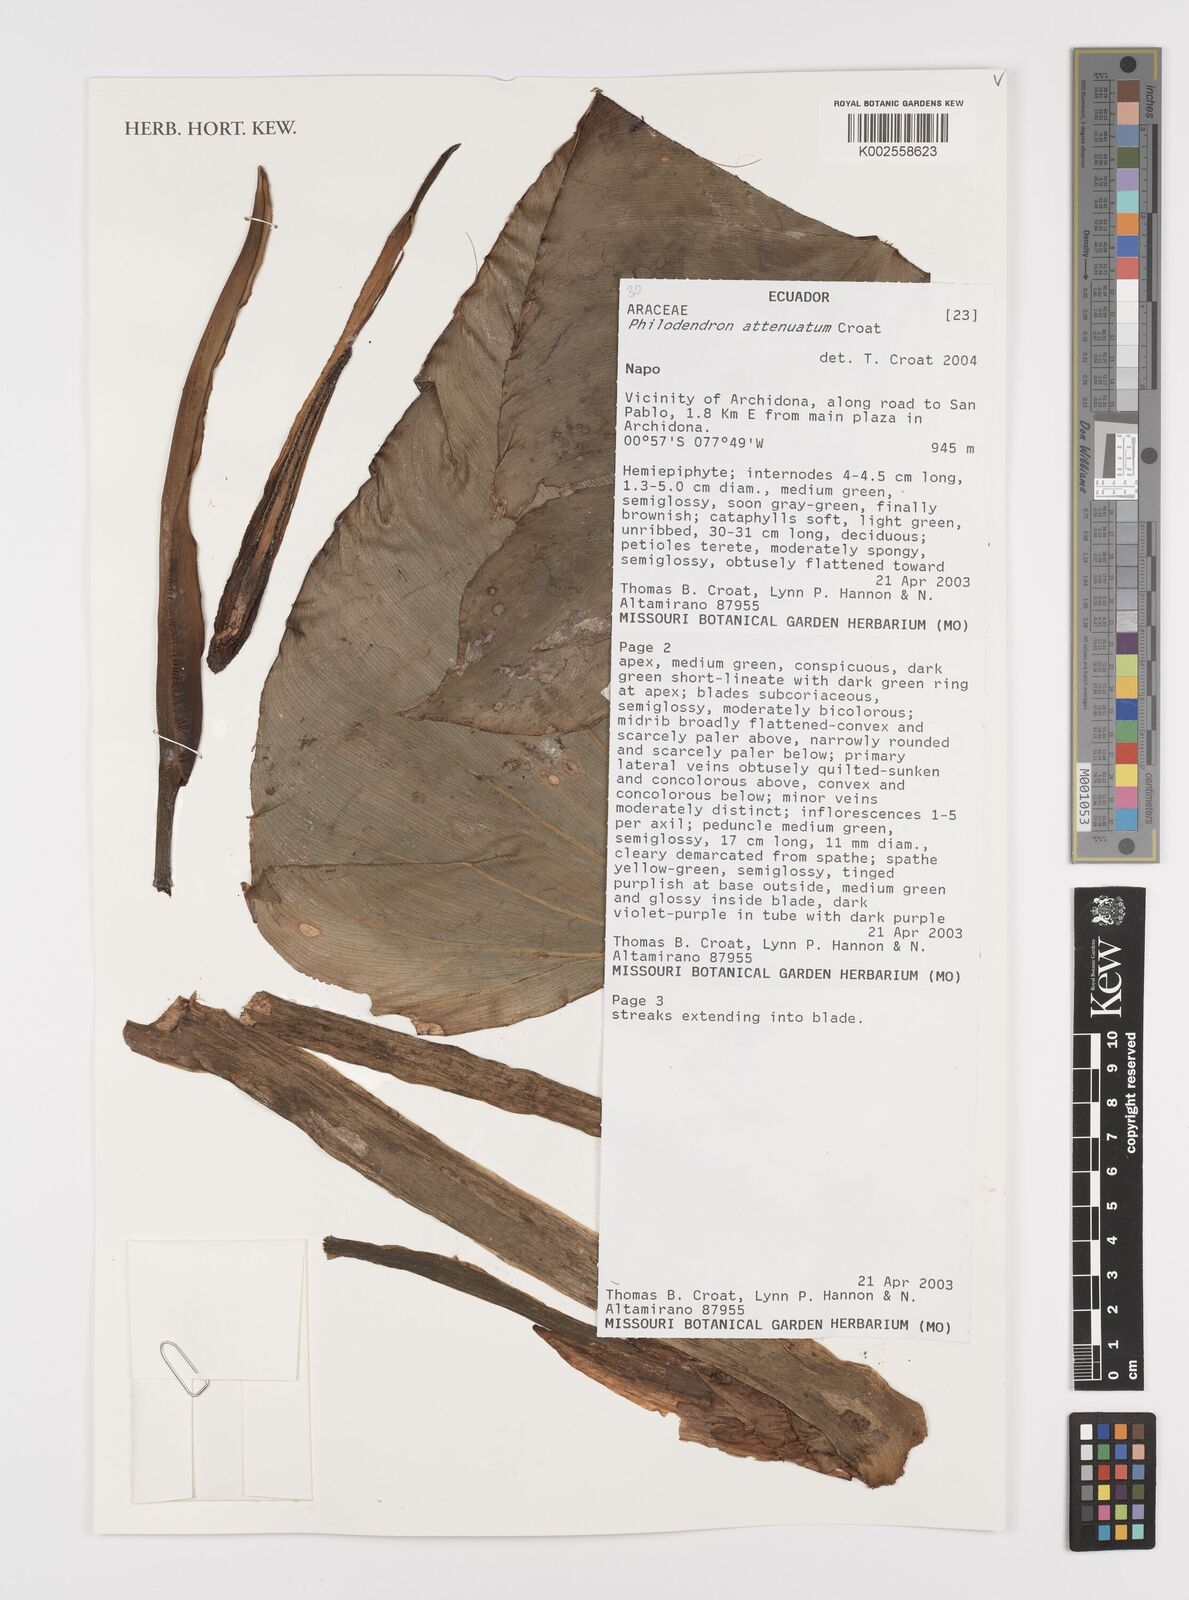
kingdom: Plantae
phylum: Tracheophyta
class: Liliopsida
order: Alismatales
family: Araceae
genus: Philodendron
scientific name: Philodendron attenuatum
